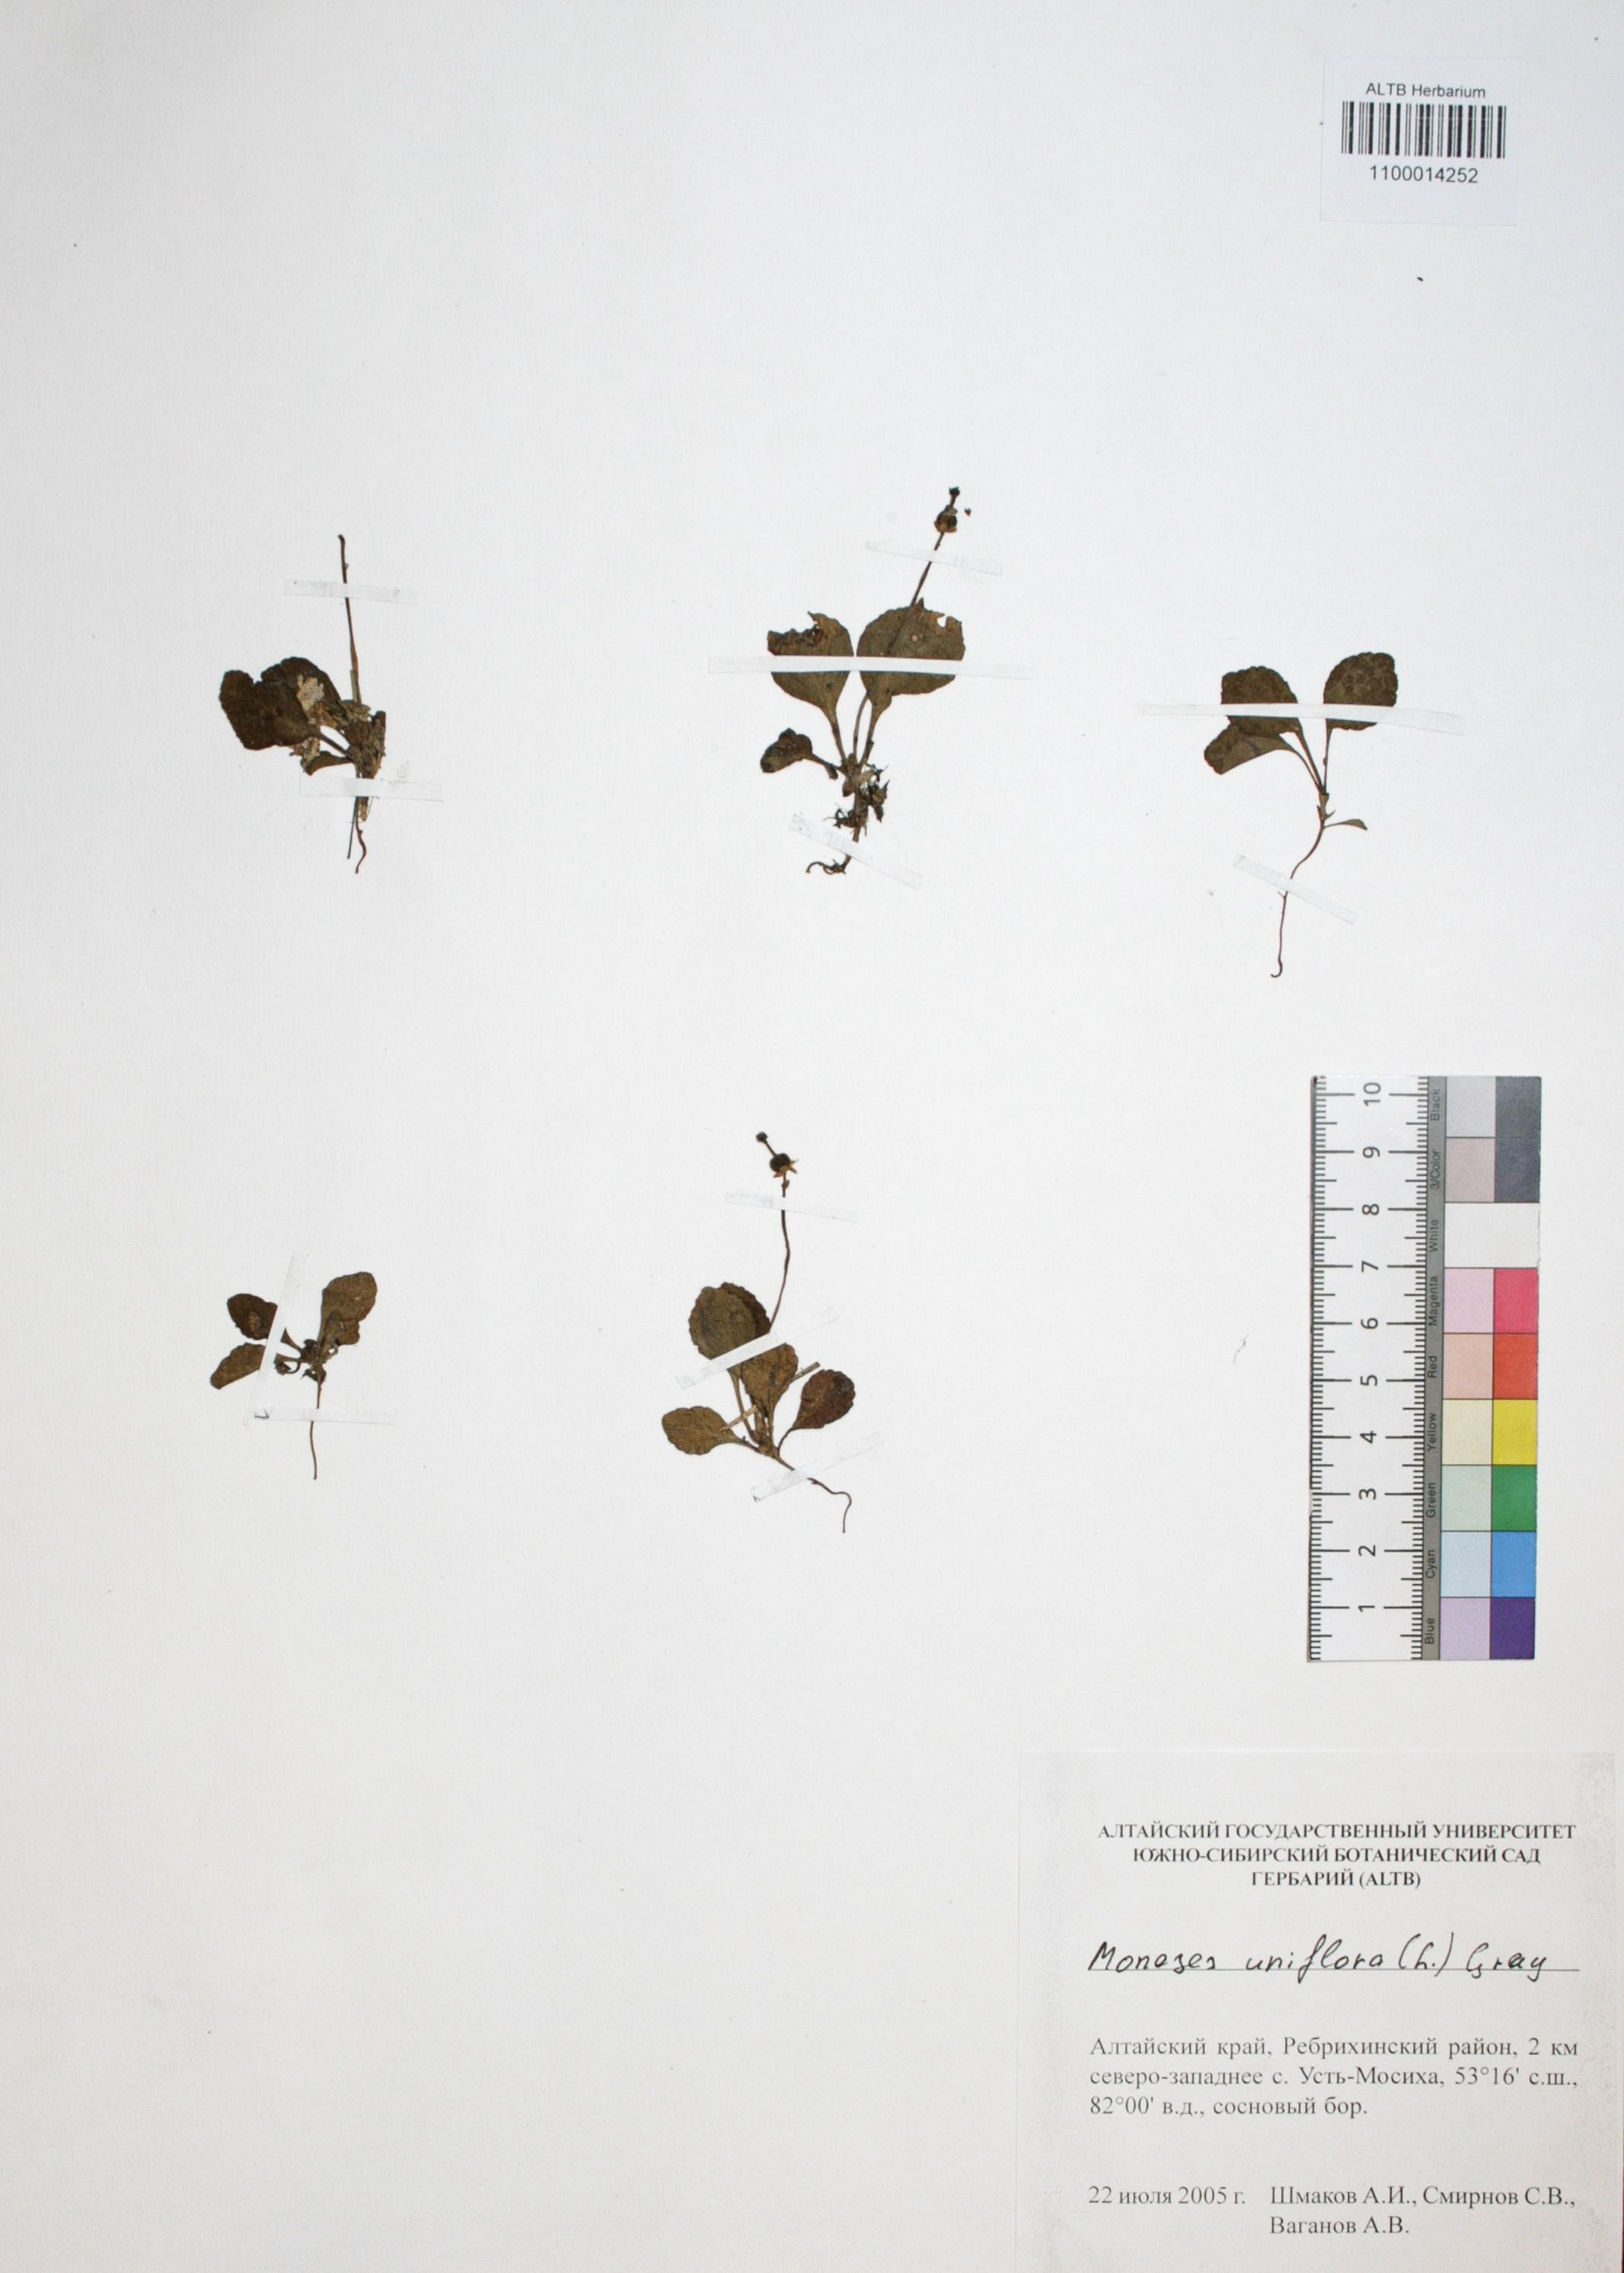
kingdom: Plantae
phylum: Tracheophyta
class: Magnoliopsida
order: Ericales
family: Ericaceae
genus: Moneses
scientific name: Moneses uniflora
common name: One-flowered wintergreen
